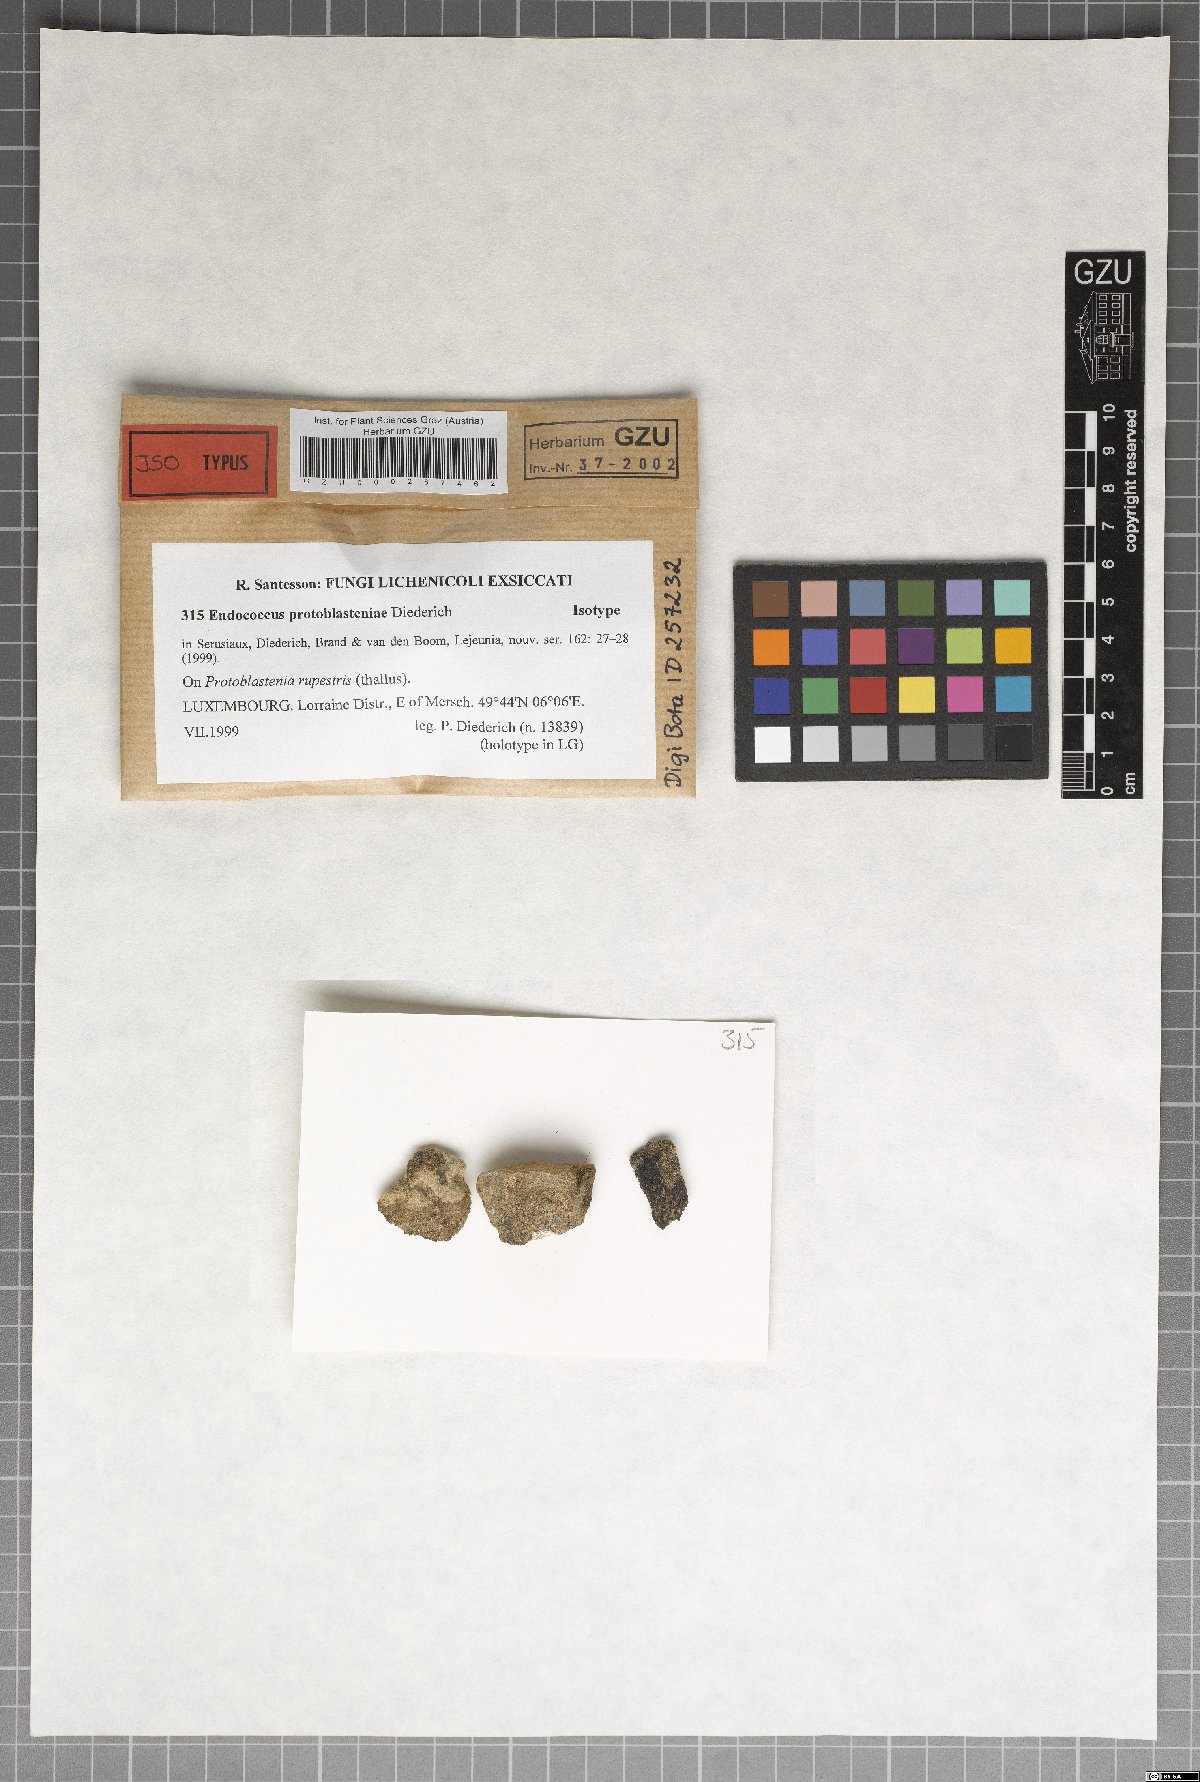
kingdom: Fungi
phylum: Ascomycota
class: Dothideomycetes
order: Dothideales
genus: Endococcus
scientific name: Endococcus protoblasteniae
